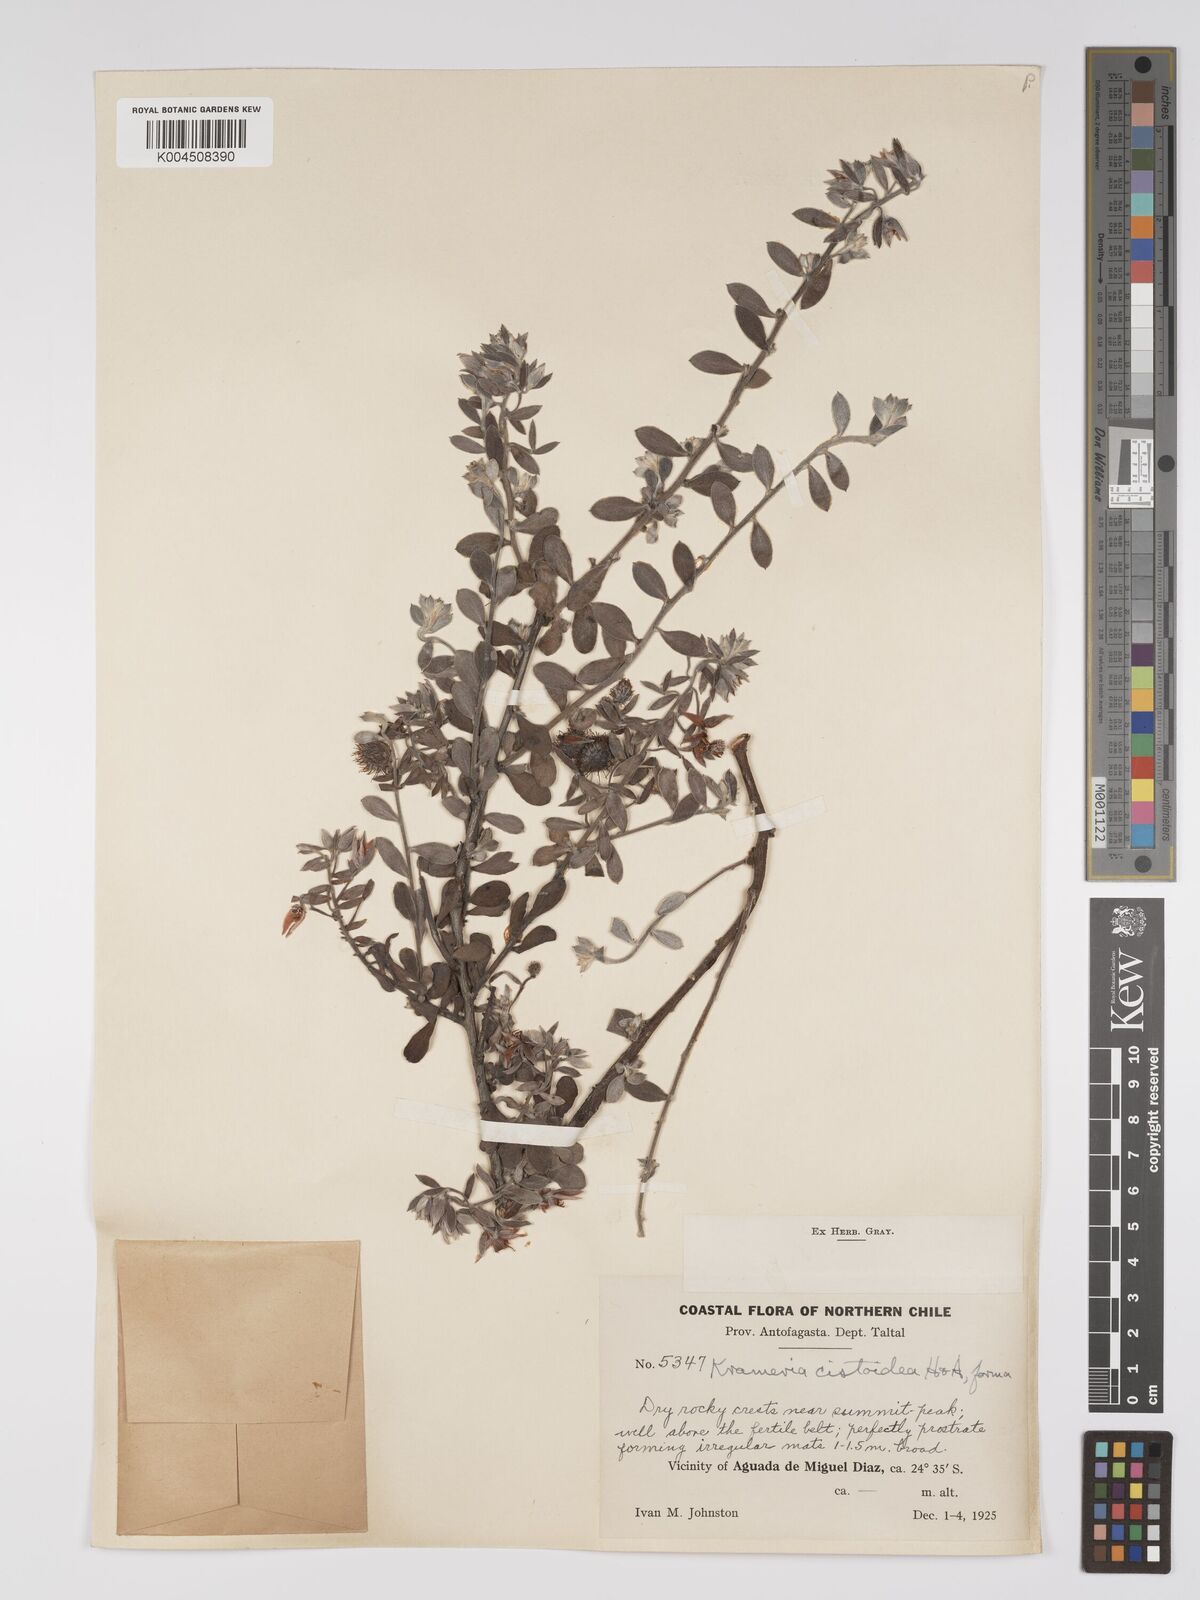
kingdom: Plantae
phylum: Tracheophyta
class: Magnoliopsida
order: Zygophyllales
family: Krameriaceae
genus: Krameria
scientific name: Krameria cistoidea
